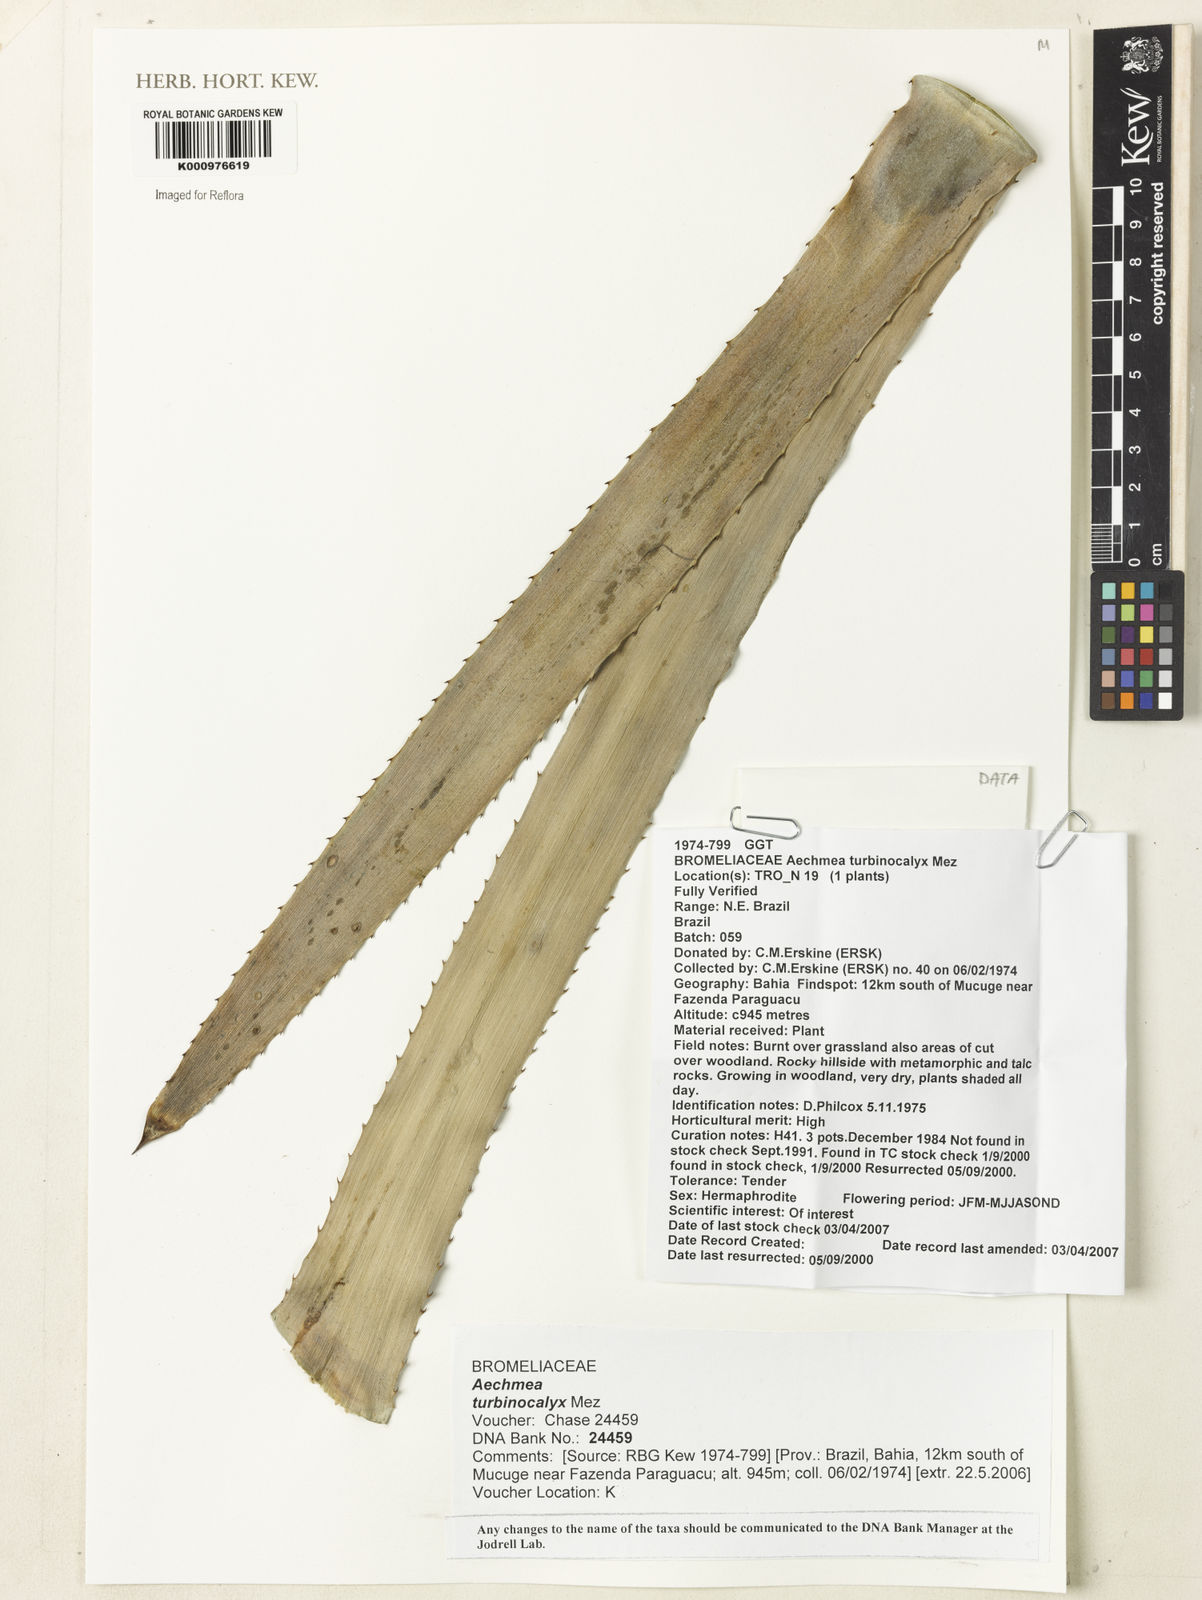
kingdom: Plantae
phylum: Tracheophyta
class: Liliopsida
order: Poales
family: Bromeliaceae
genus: Wittmackia
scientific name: Wittmackia turbinocalyx
